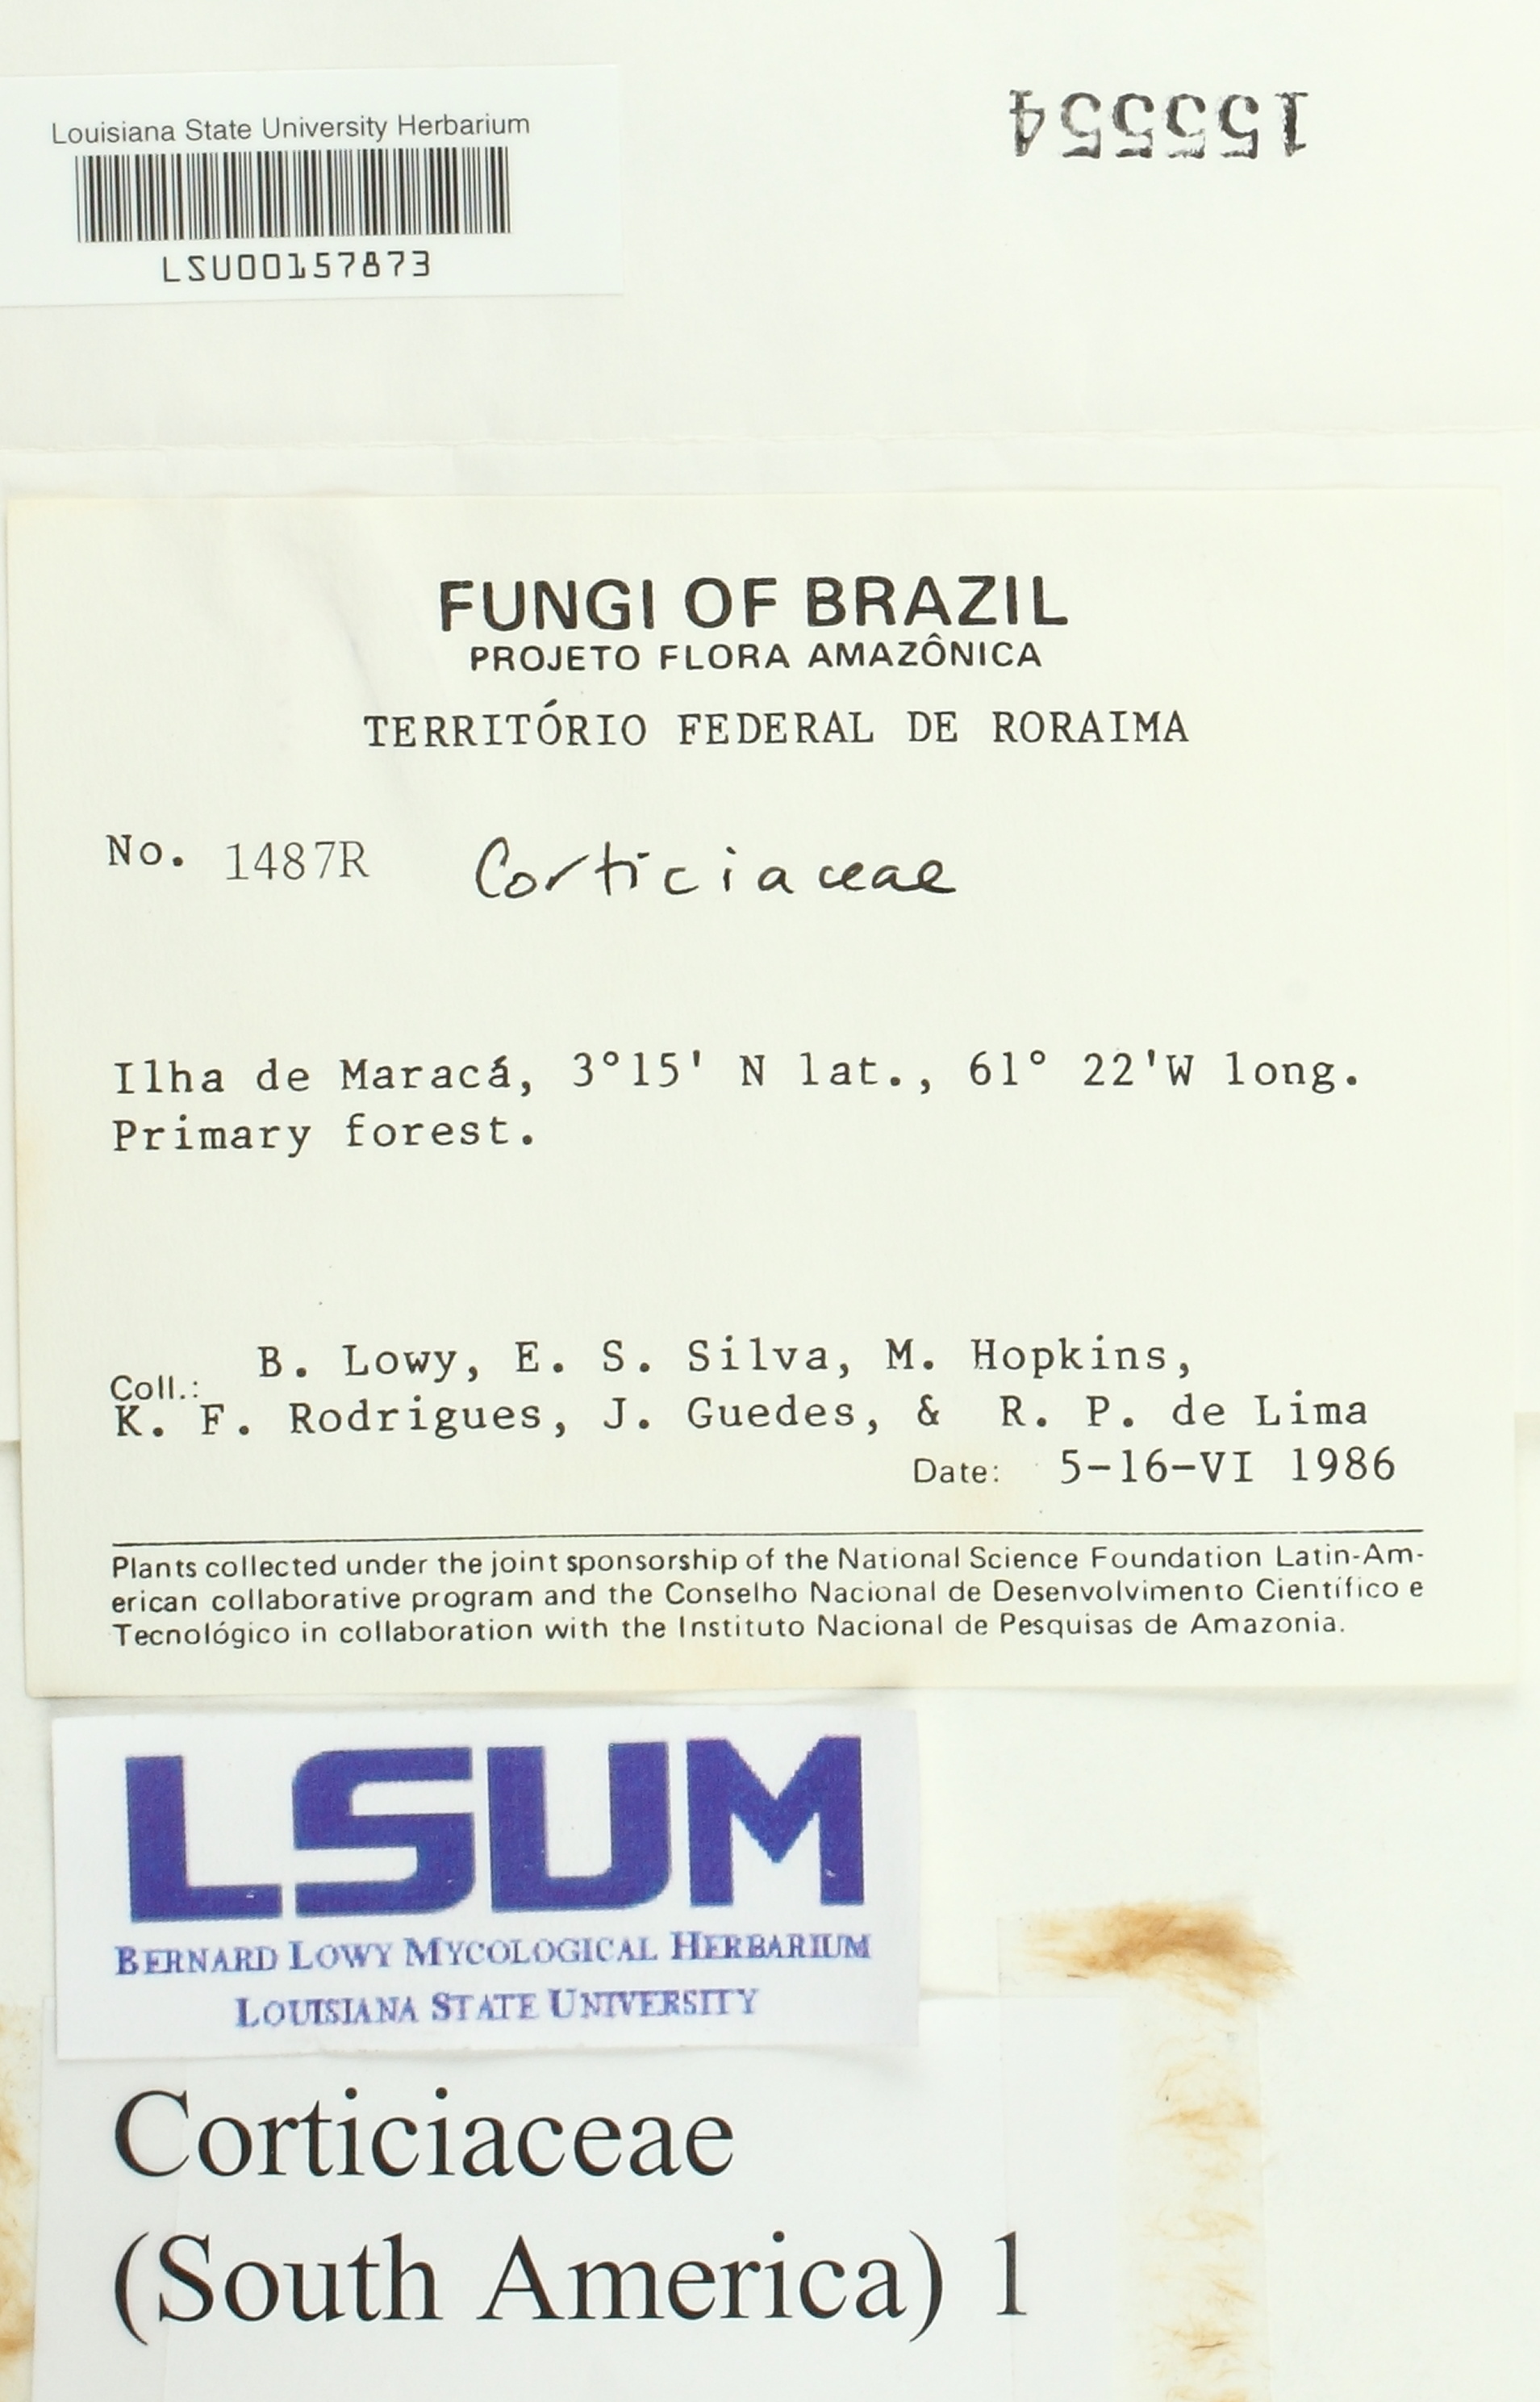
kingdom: Fungi
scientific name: Fungi
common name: Fungi
